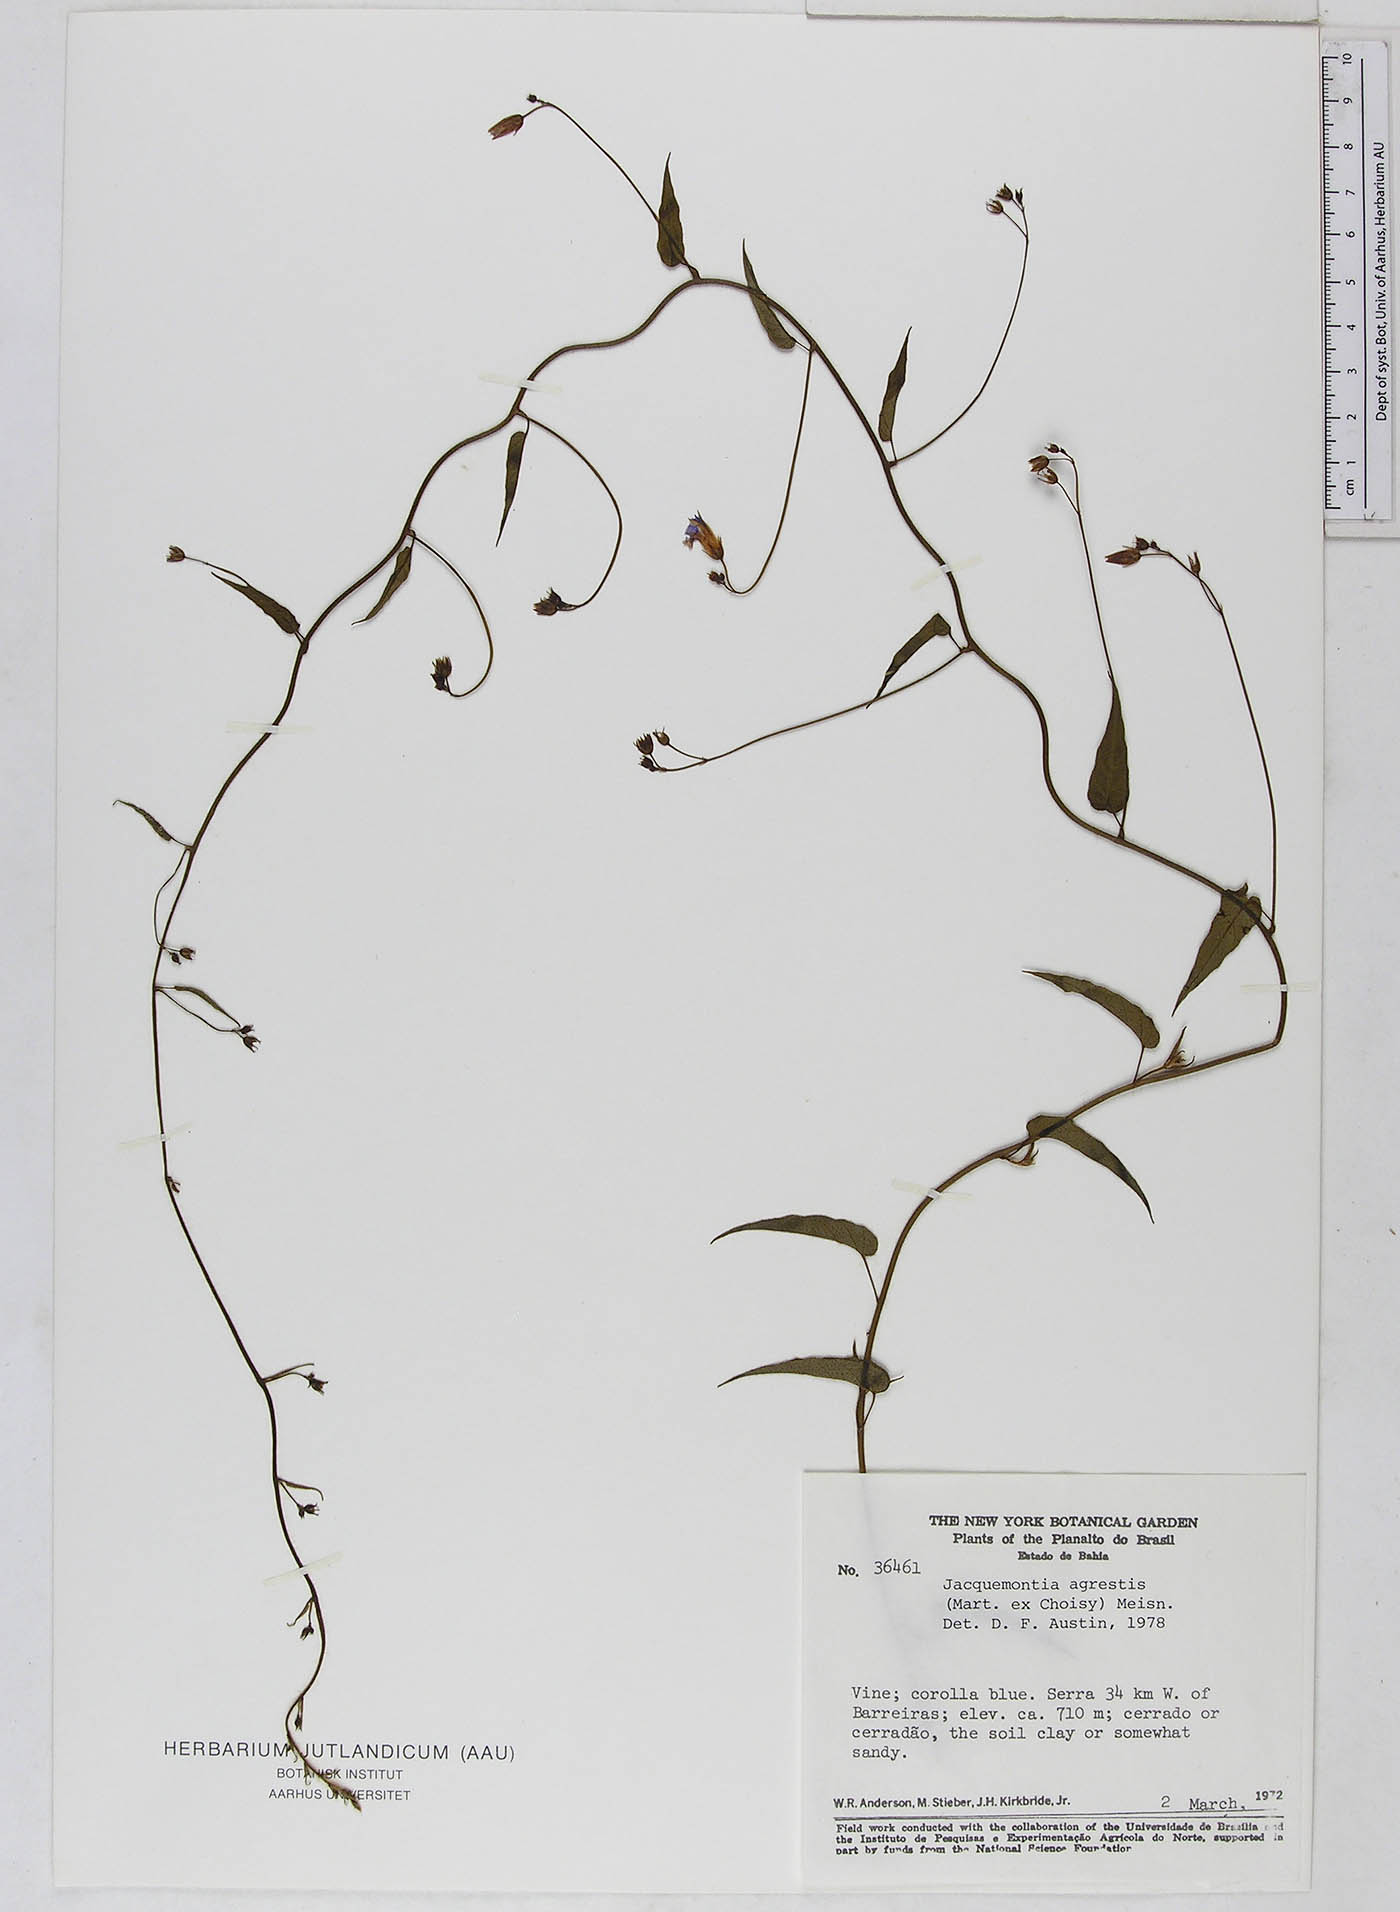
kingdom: Plantae
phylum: Tracheophyta
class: Magnoliopsida
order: Solanales
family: Convolvulaceae
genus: Jacquemontia
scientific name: Jacquemontia agrestis
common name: Midnightblue clustervine
